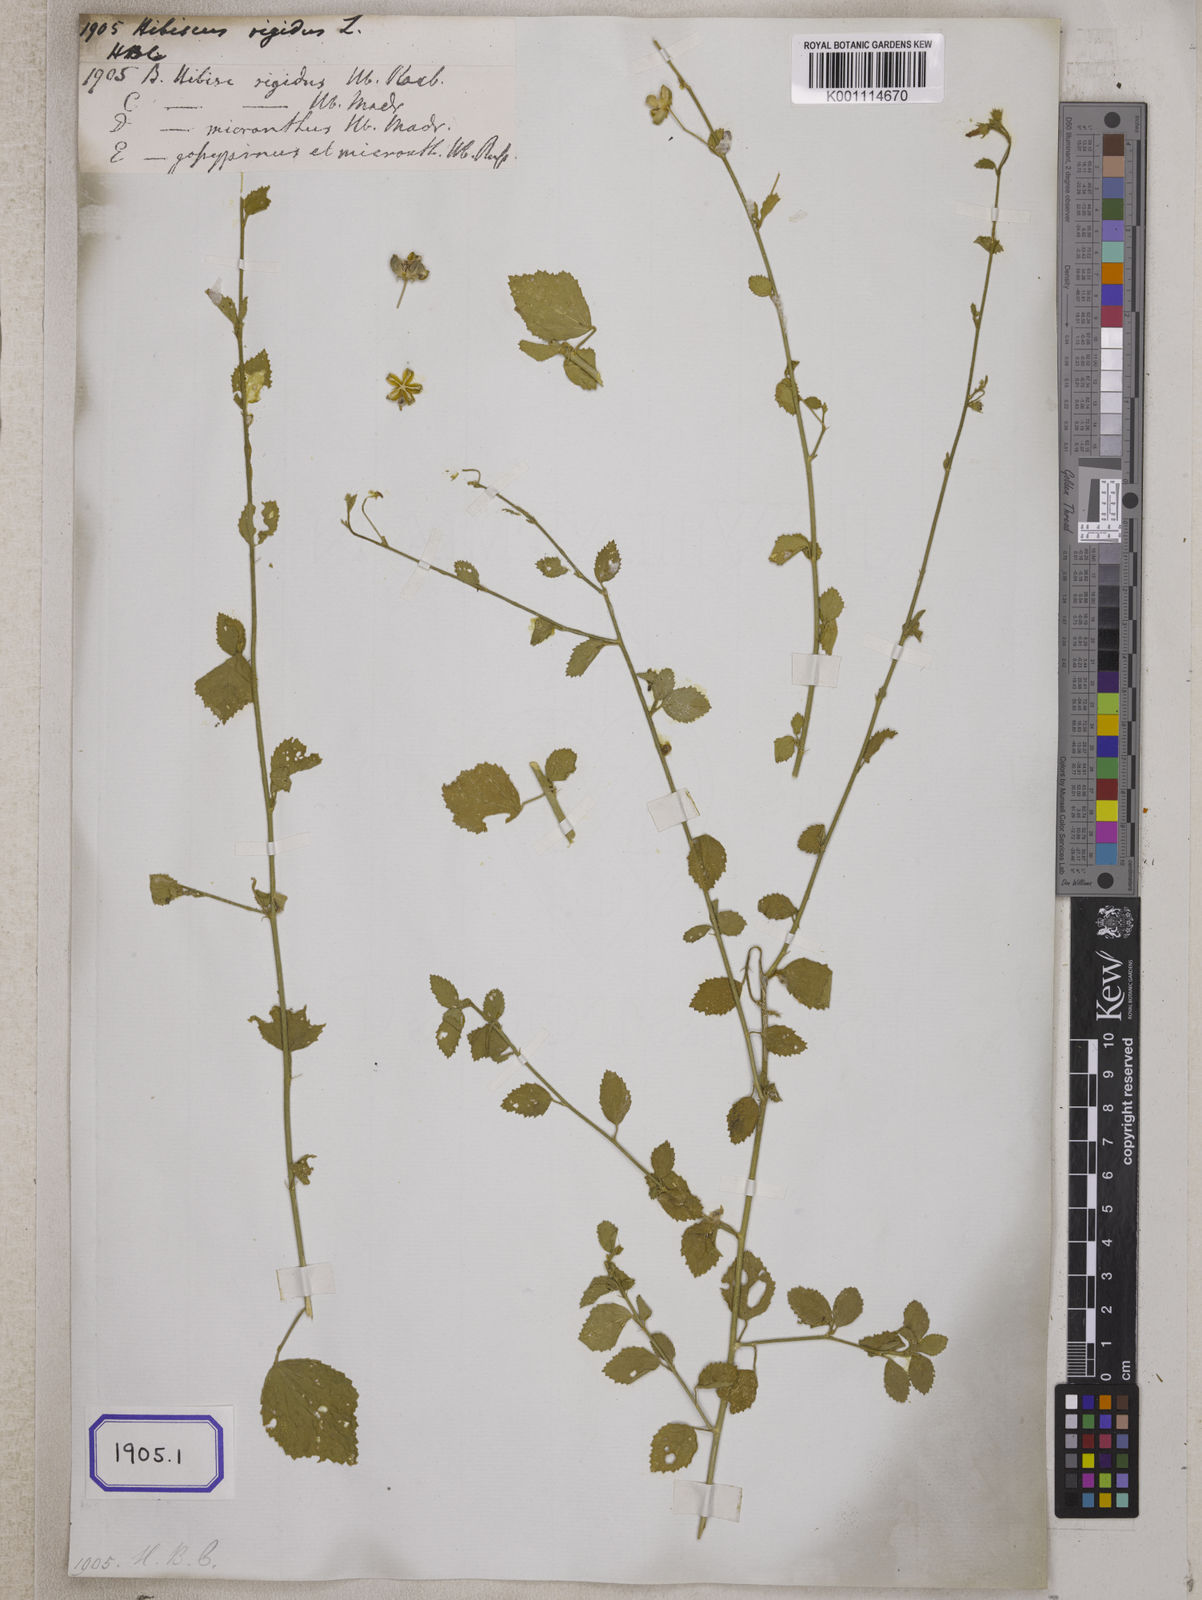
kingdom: Plantae
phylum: Tracheophyta
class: Magnoliopsida
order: Malvales
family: Malvaceae
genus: Hibiscus
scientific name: Hibiscus micranthus
